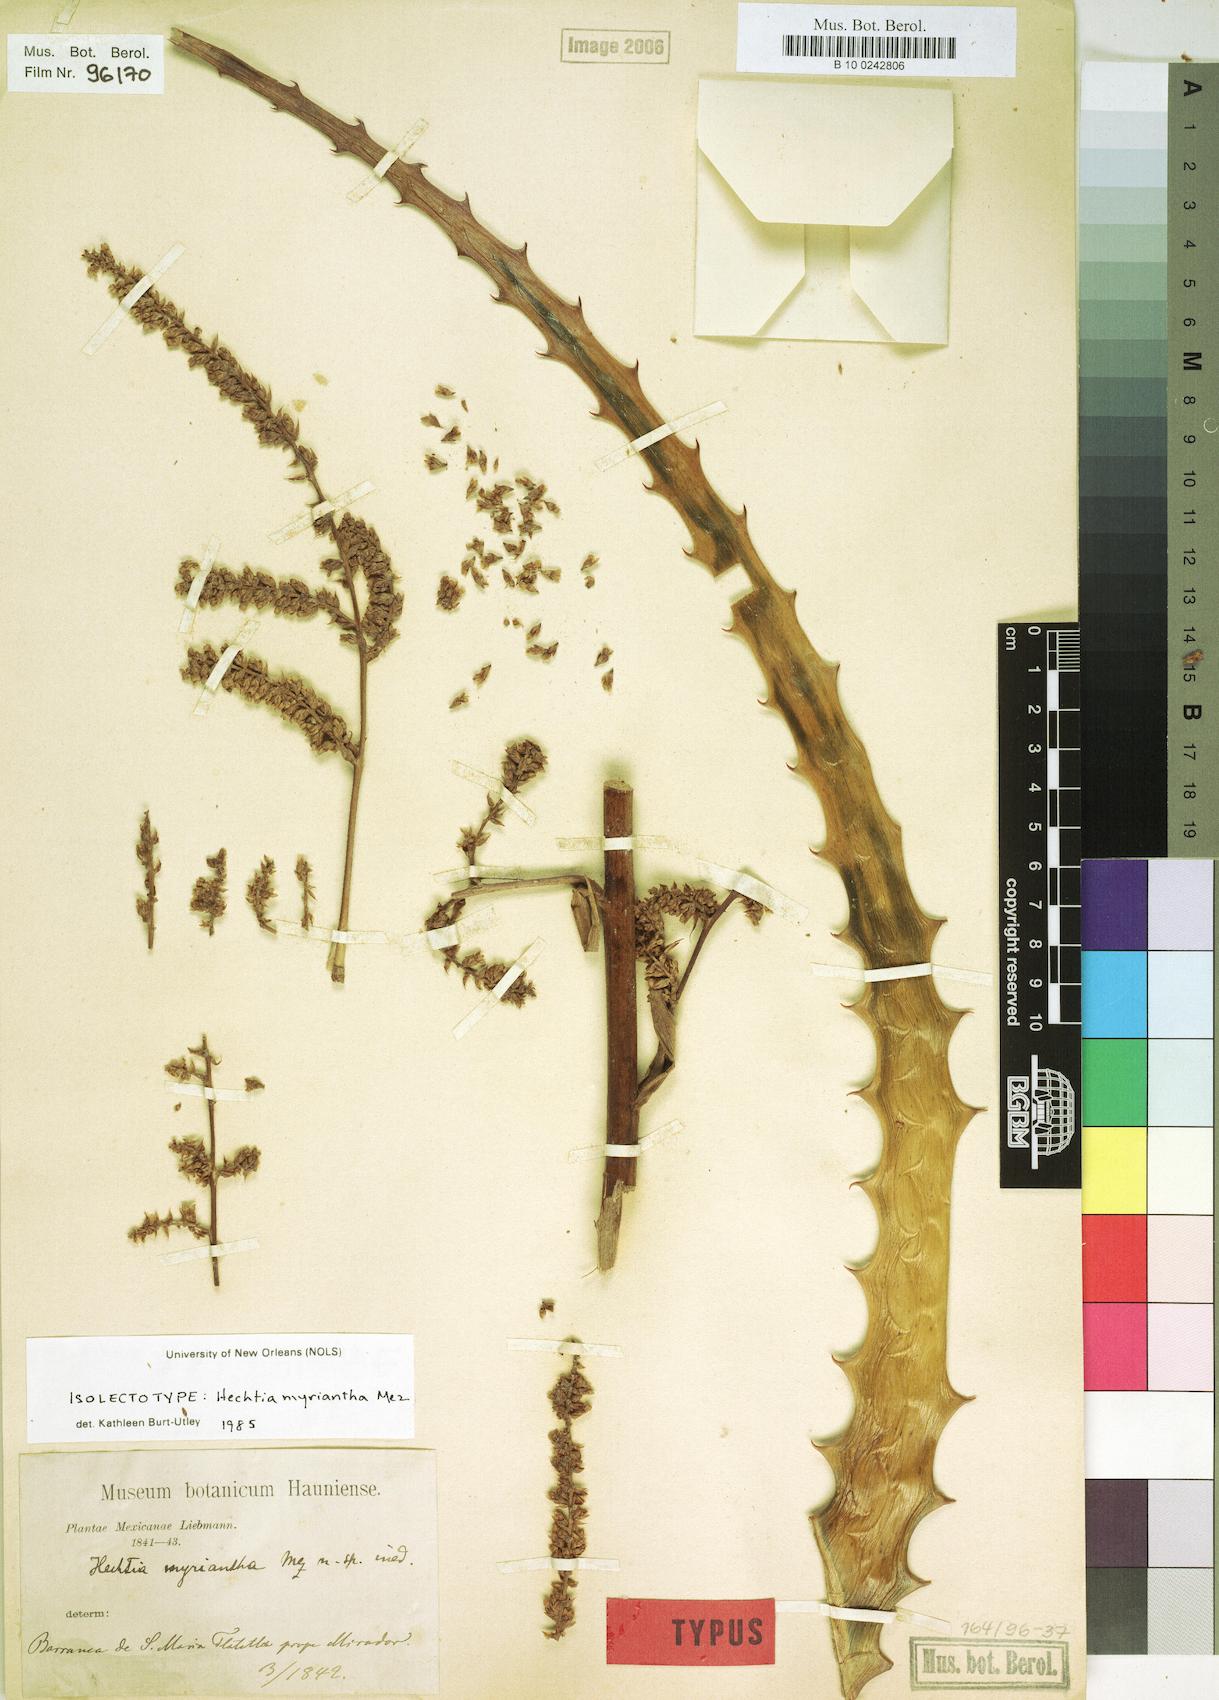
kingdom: Plantae
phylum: Tracheophyta
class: Liliopsida
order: Poales
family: Bromeliaceae
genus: Hechtia
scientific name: Hechtia myriantha
